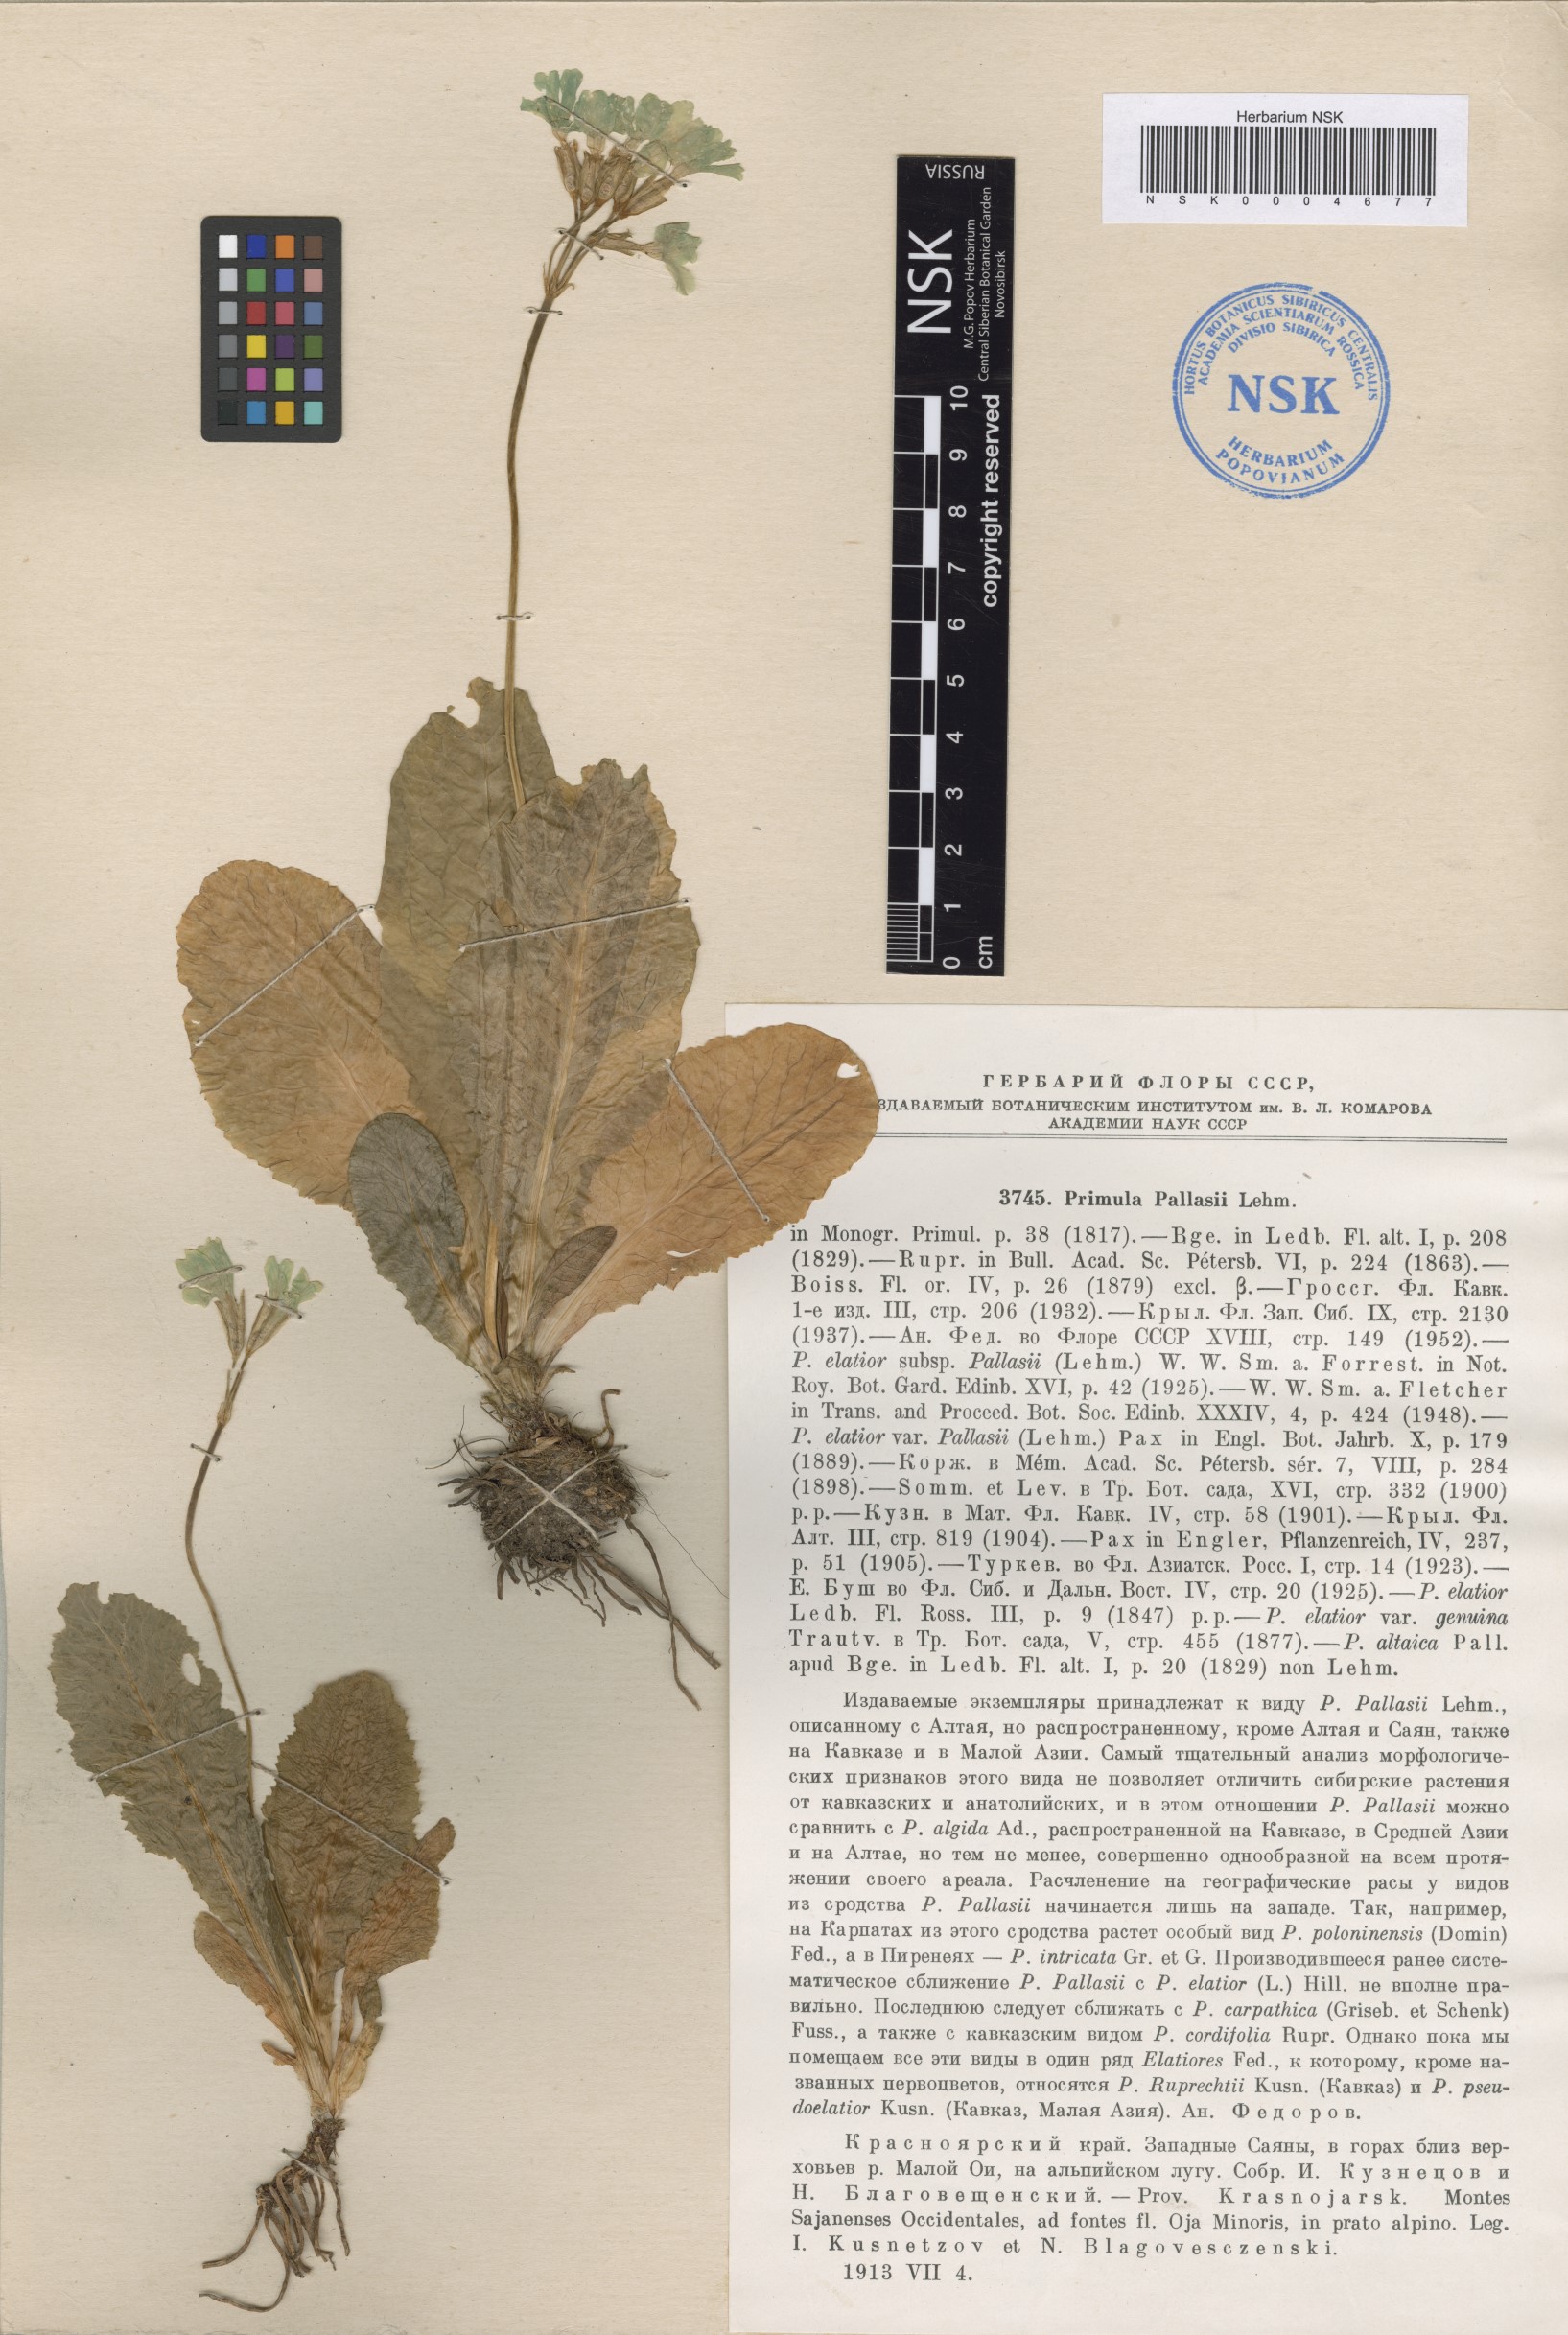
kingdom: Plantae
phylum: Tracheophyta
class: Magnoliopsida
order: Ericales
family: Primulaceae
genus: Primula
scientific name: Primula elatior
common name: Oxlip
